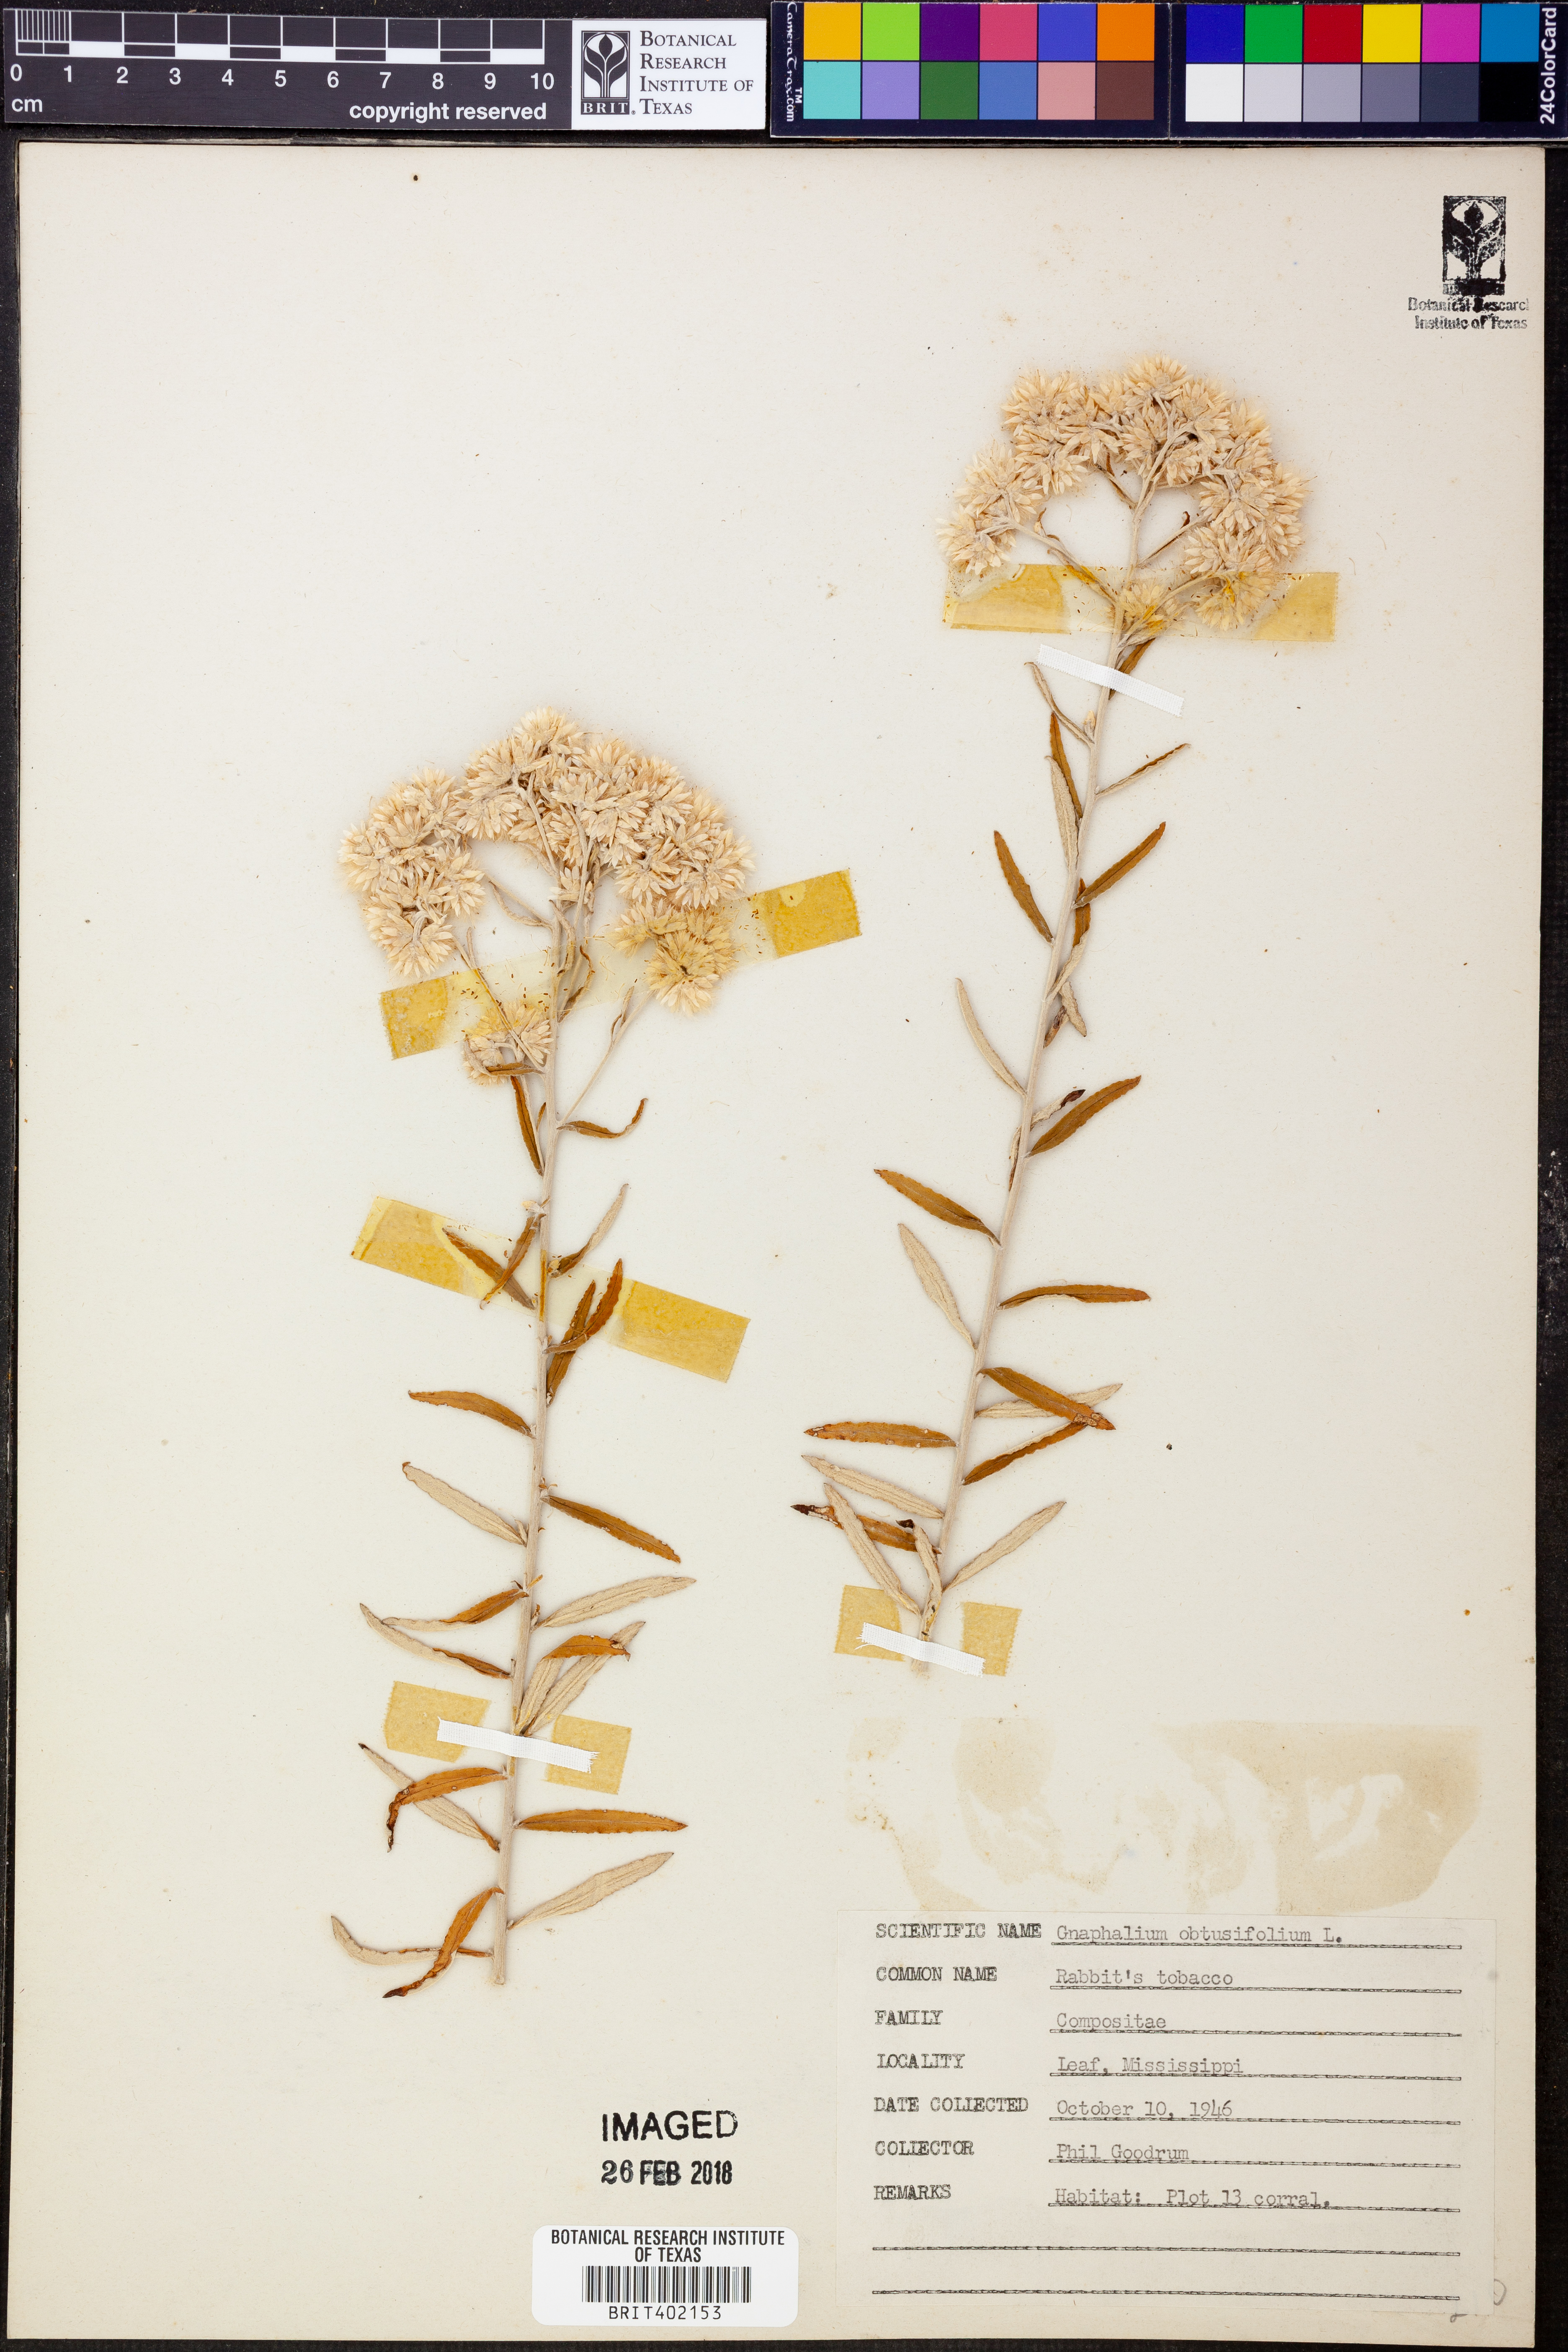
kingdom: Plantae
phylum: Tracheophyta
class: Magnoliopsida
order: Asterales
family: Asteraceae
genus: Pseudognaphalium
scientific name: Pseudognaphalium obtusifolium
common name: Eastern rabbit-tobacco
